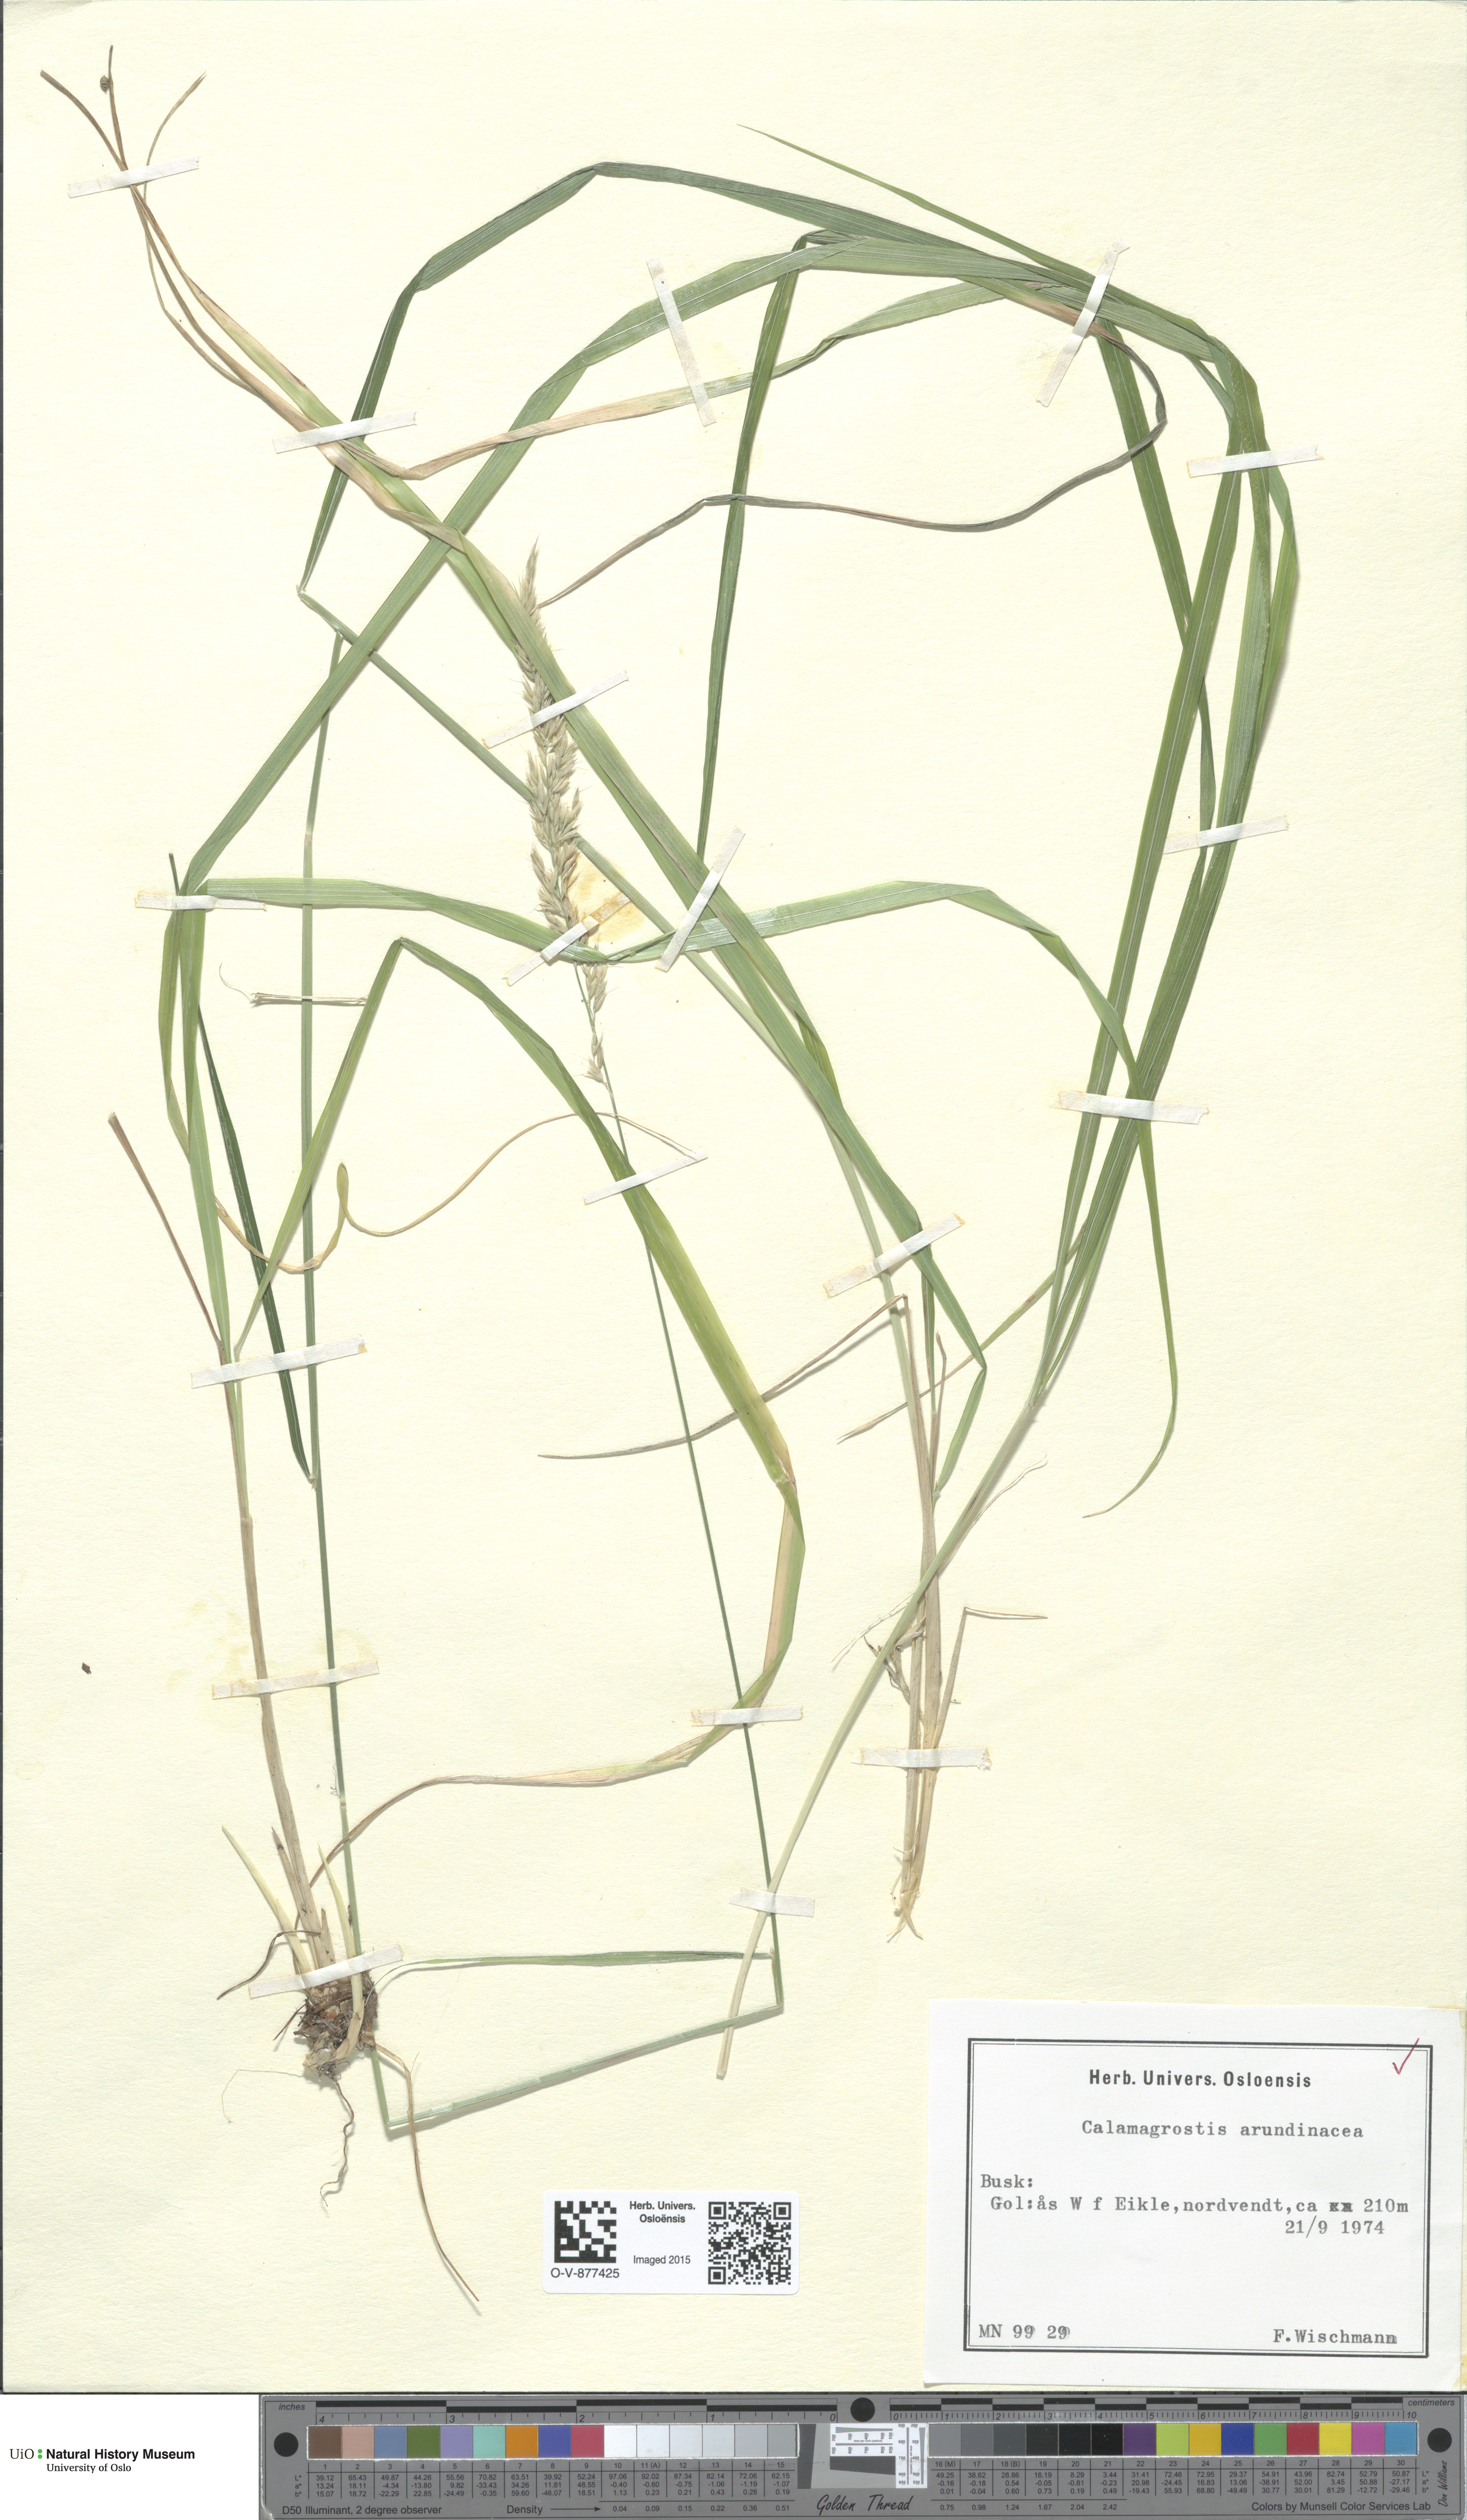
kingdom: Plantae
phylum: Tracheophyta
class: Liliopsida
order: Poales
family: Poaceae
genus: Calamagrostis
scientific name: Calamagrostis arundinacea
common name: Metskastik
